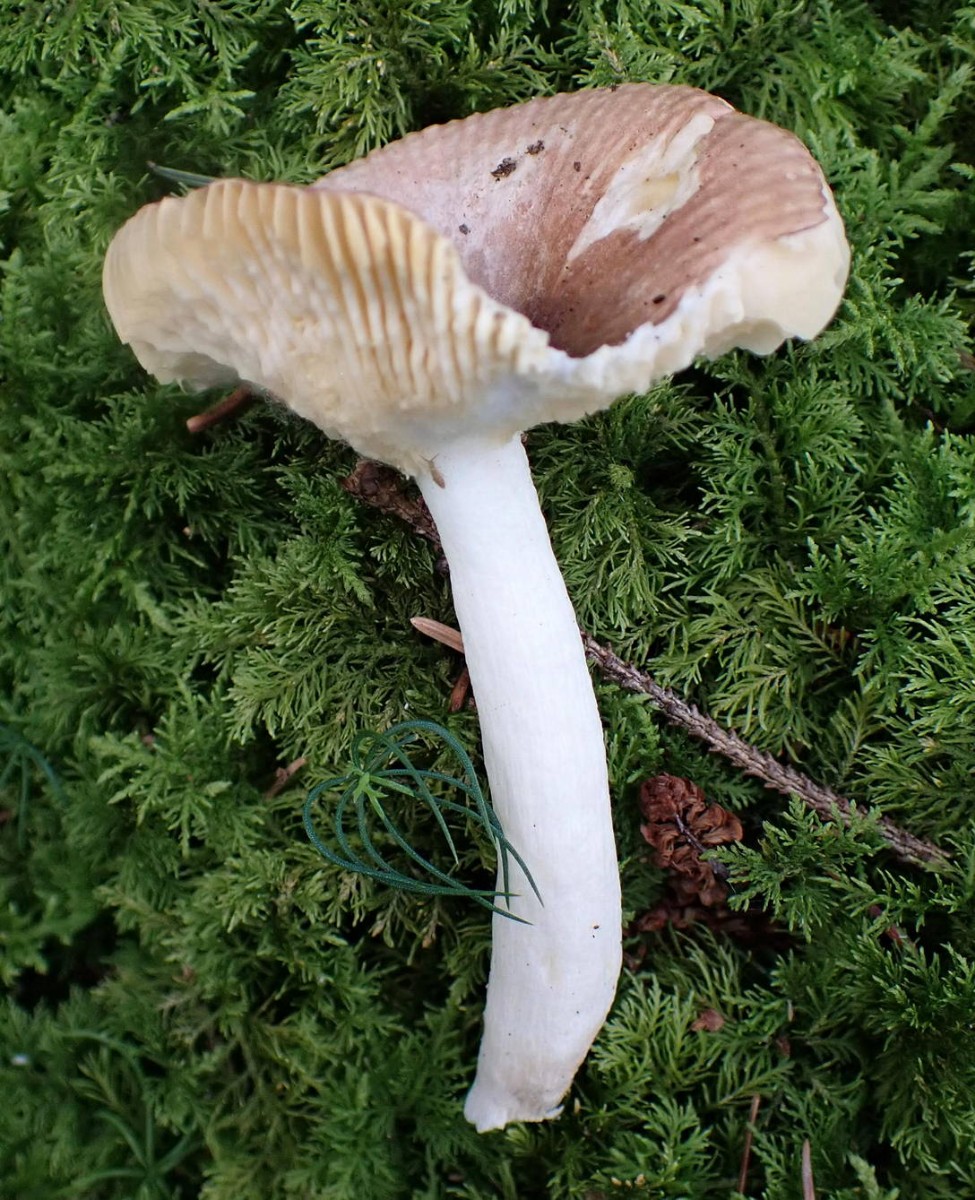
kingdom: Fungi
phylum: Basidiomycota
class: Agaricomycetes
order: Russulales
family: Russulaceae
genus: Russula
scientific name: Russula nauseosa
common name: spinkel skørhat
